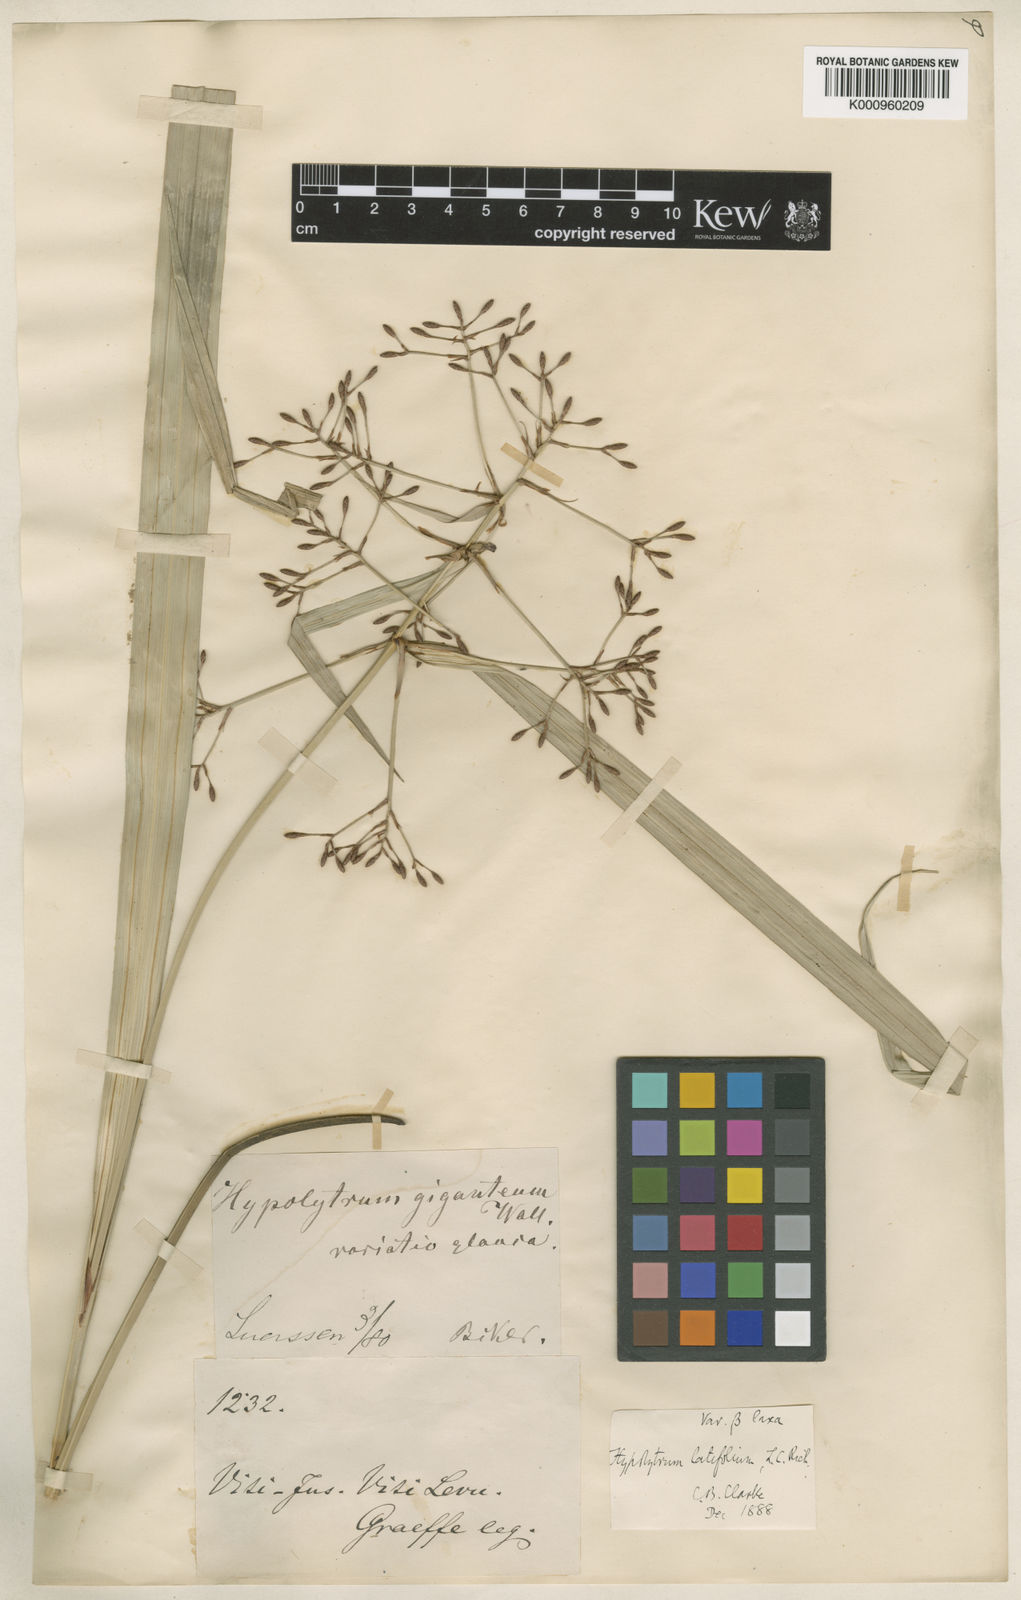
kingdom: Plantae
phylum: Tracheophyta
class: Liliopsida
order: Poales
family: Cyperaceae
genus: Hypolytrum
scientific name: Hypolytrum nemorum
